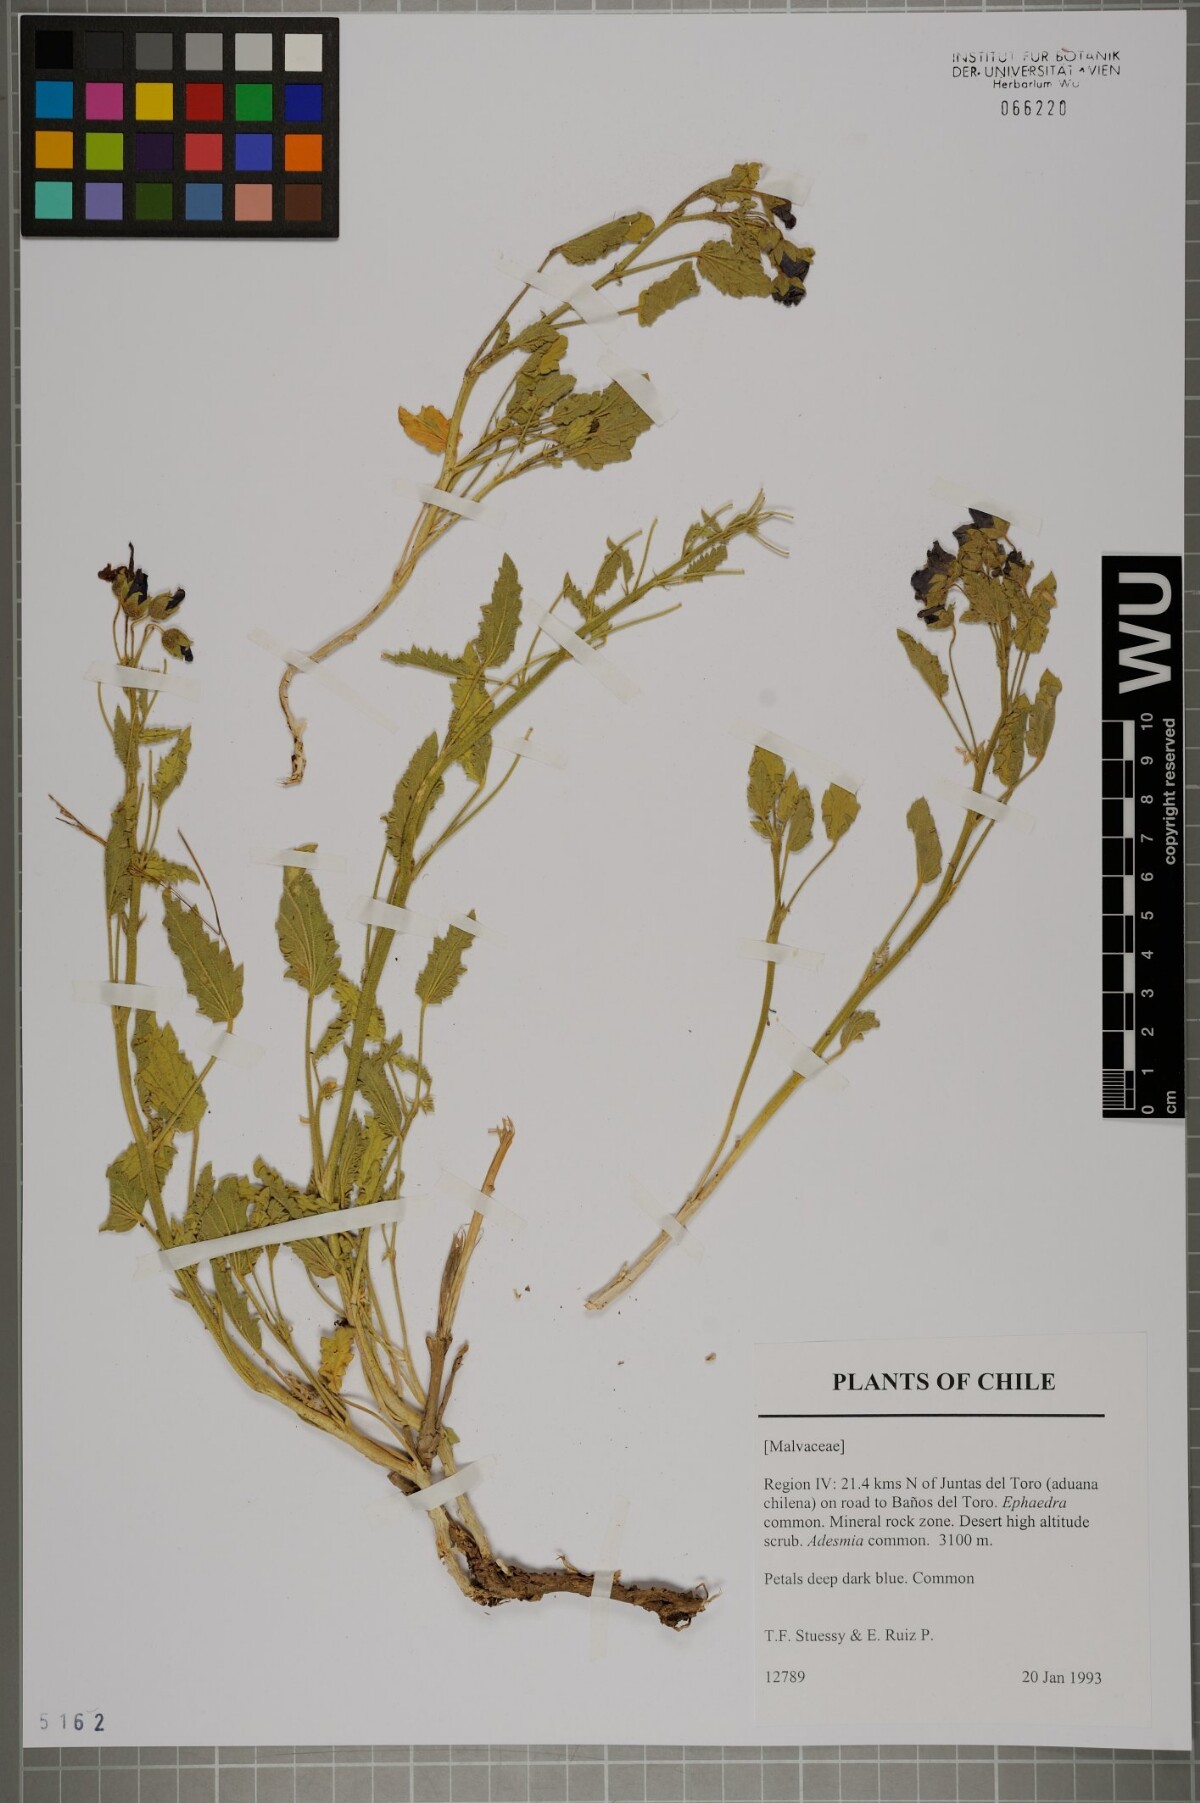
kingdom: Plantae
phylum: Tracheophyta
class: Magnoliopsida
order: Malvales
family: Malvaceae
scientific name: Malvaceae
